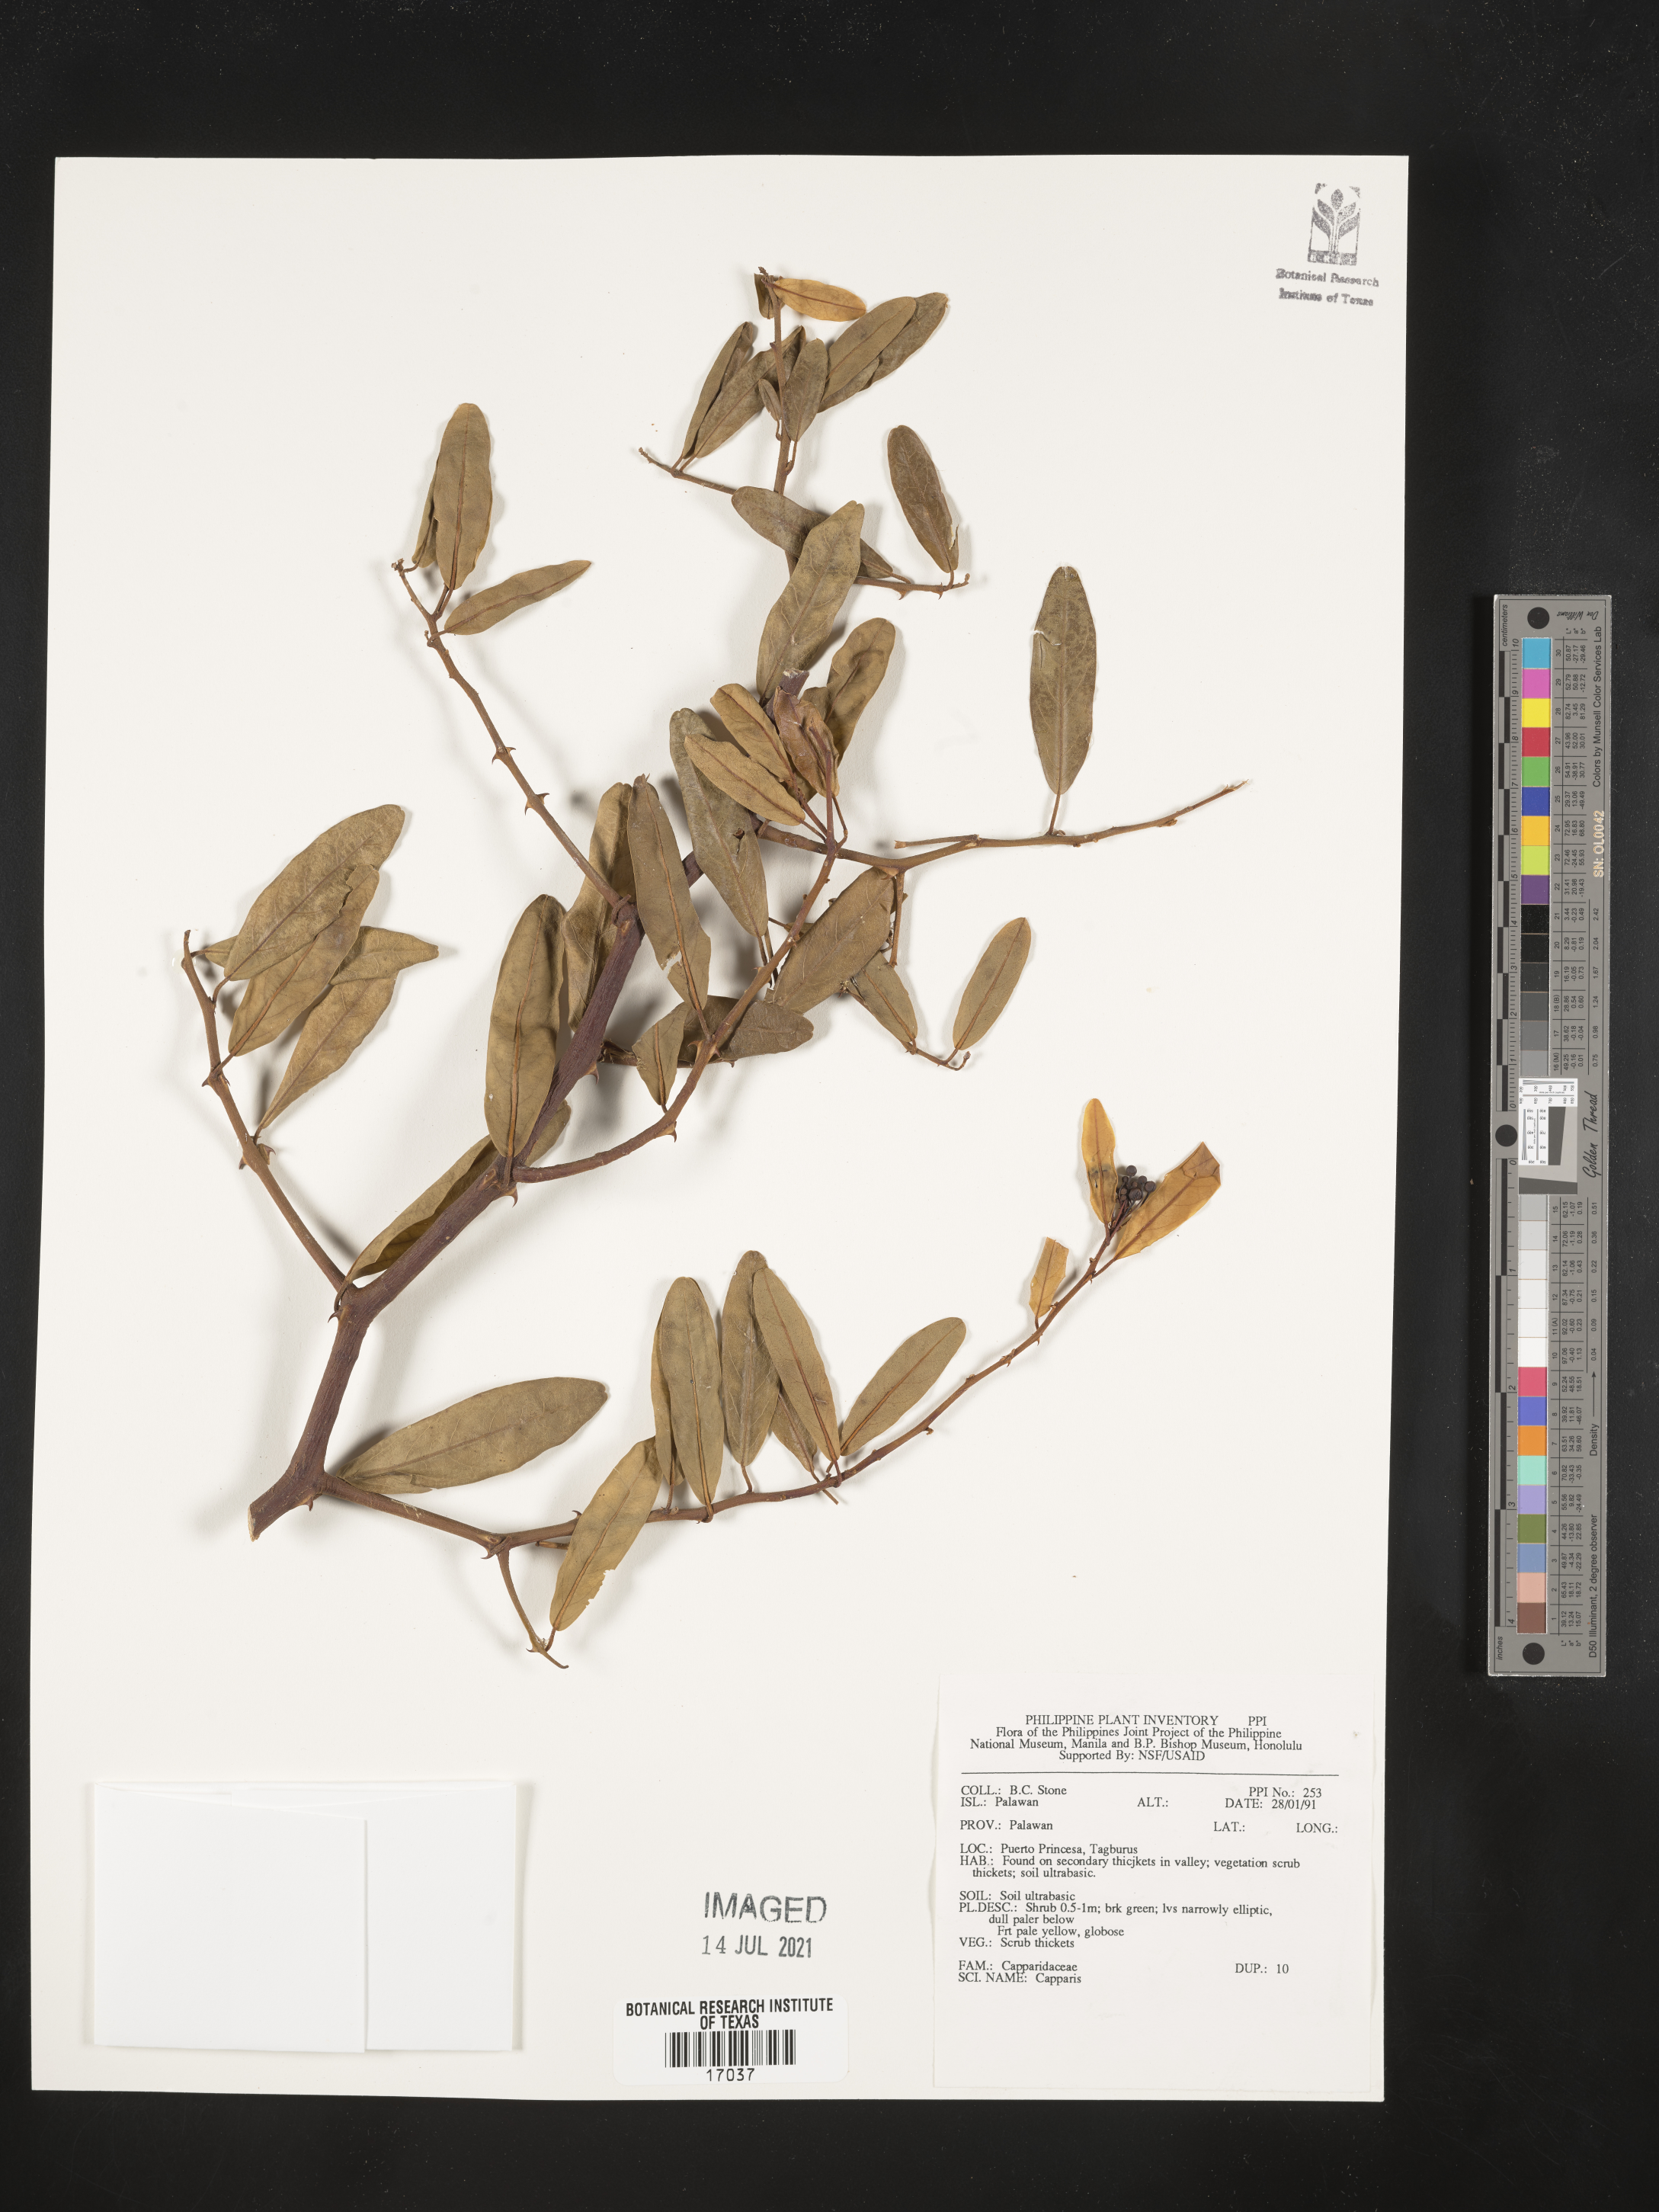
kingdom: Plantae
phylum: Tracheophyta
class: Magnoliopsida
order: Brassicales
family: Capparaceae
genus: Capparis
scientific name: Capparis
